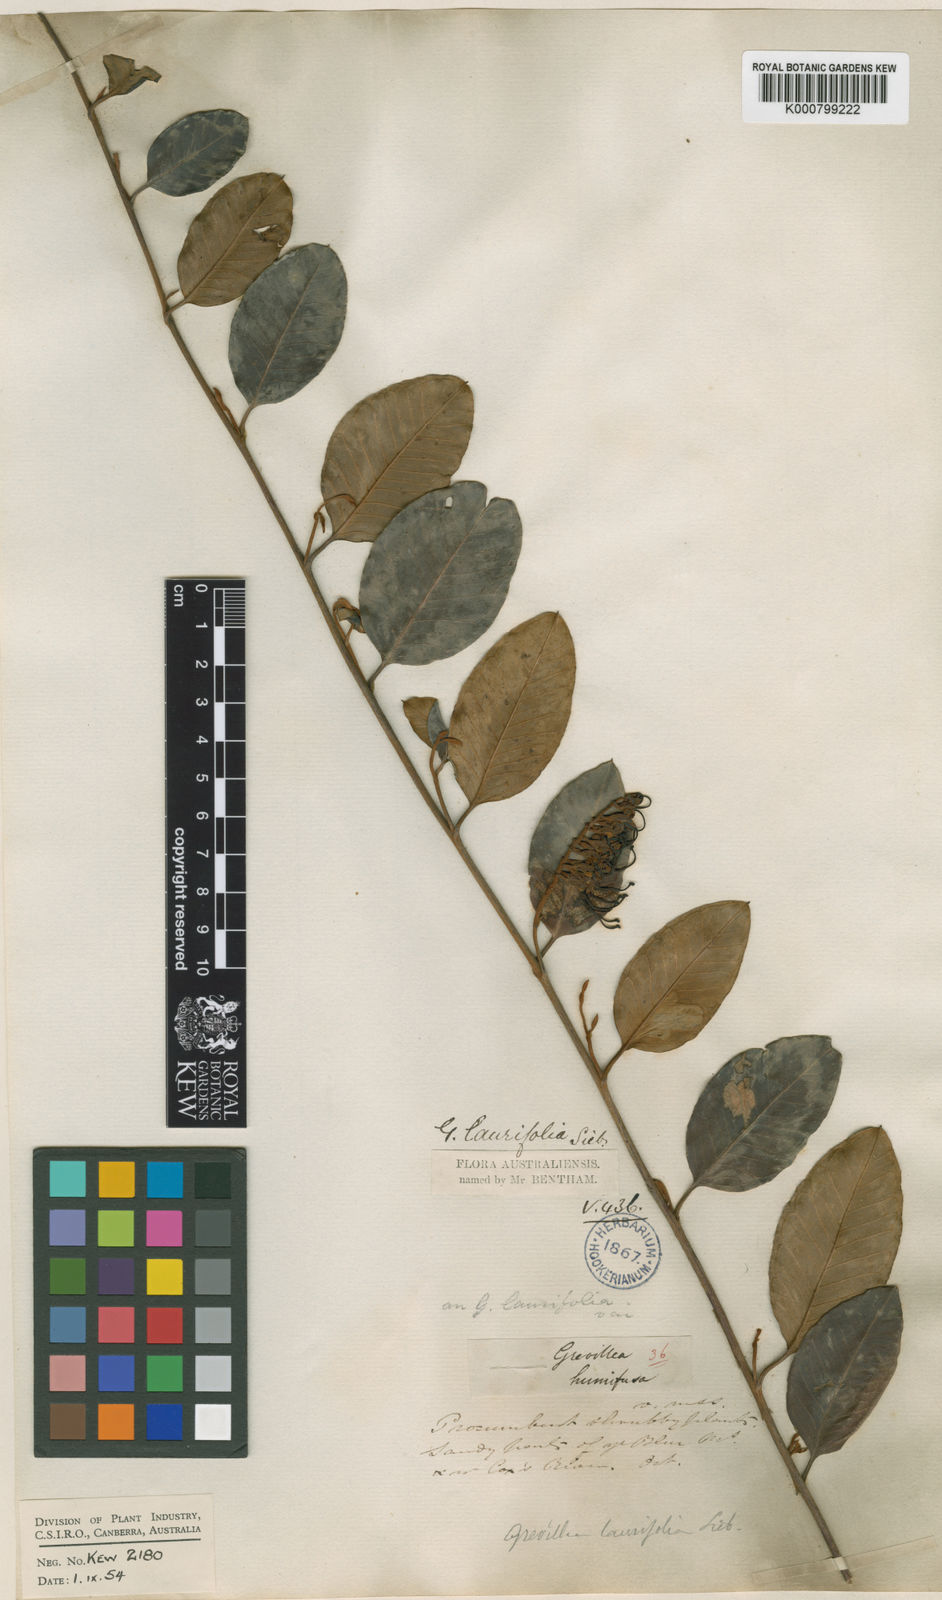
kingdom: Plantae
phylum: Tracheophyta
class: Magnoliopsida
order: Proteales
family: Proteaceae
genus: Grevillea
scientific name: Grevillea
